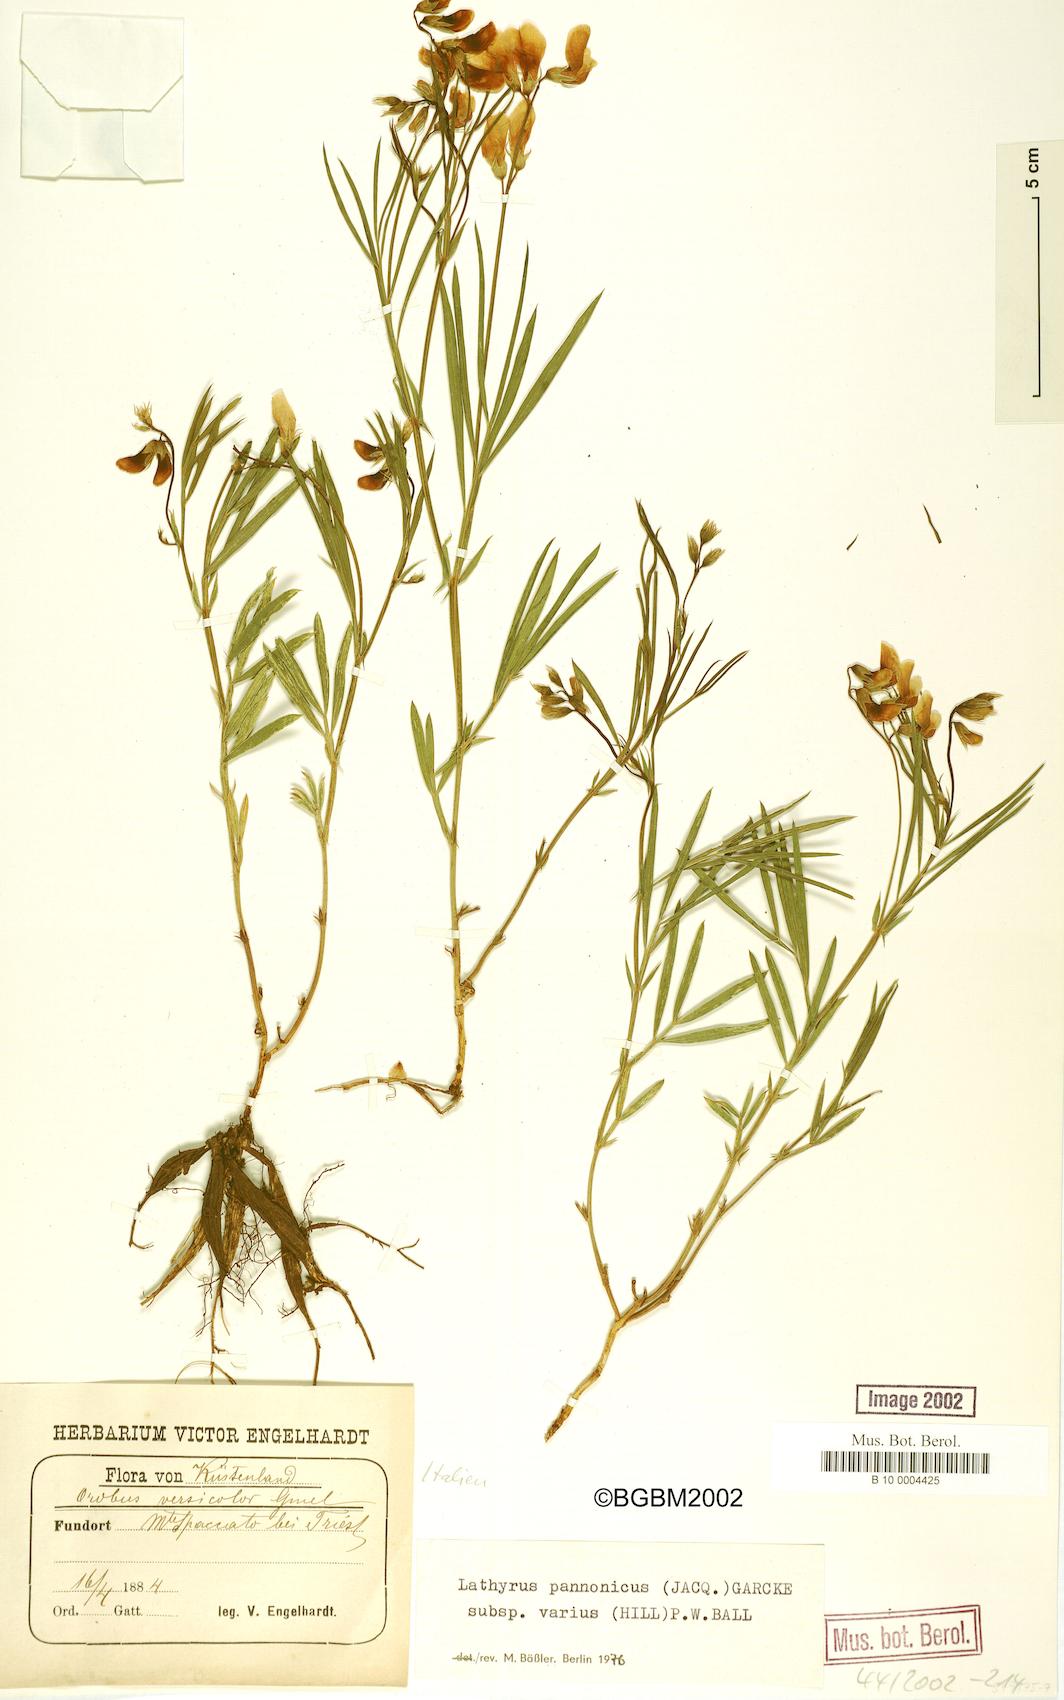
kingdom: Plantae
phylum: Tracheophyta
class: Magnoliopsida
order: Fabales
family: Fabaceae
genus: Lathyrus
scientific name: Lathyrus pannonicus
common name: Pea
